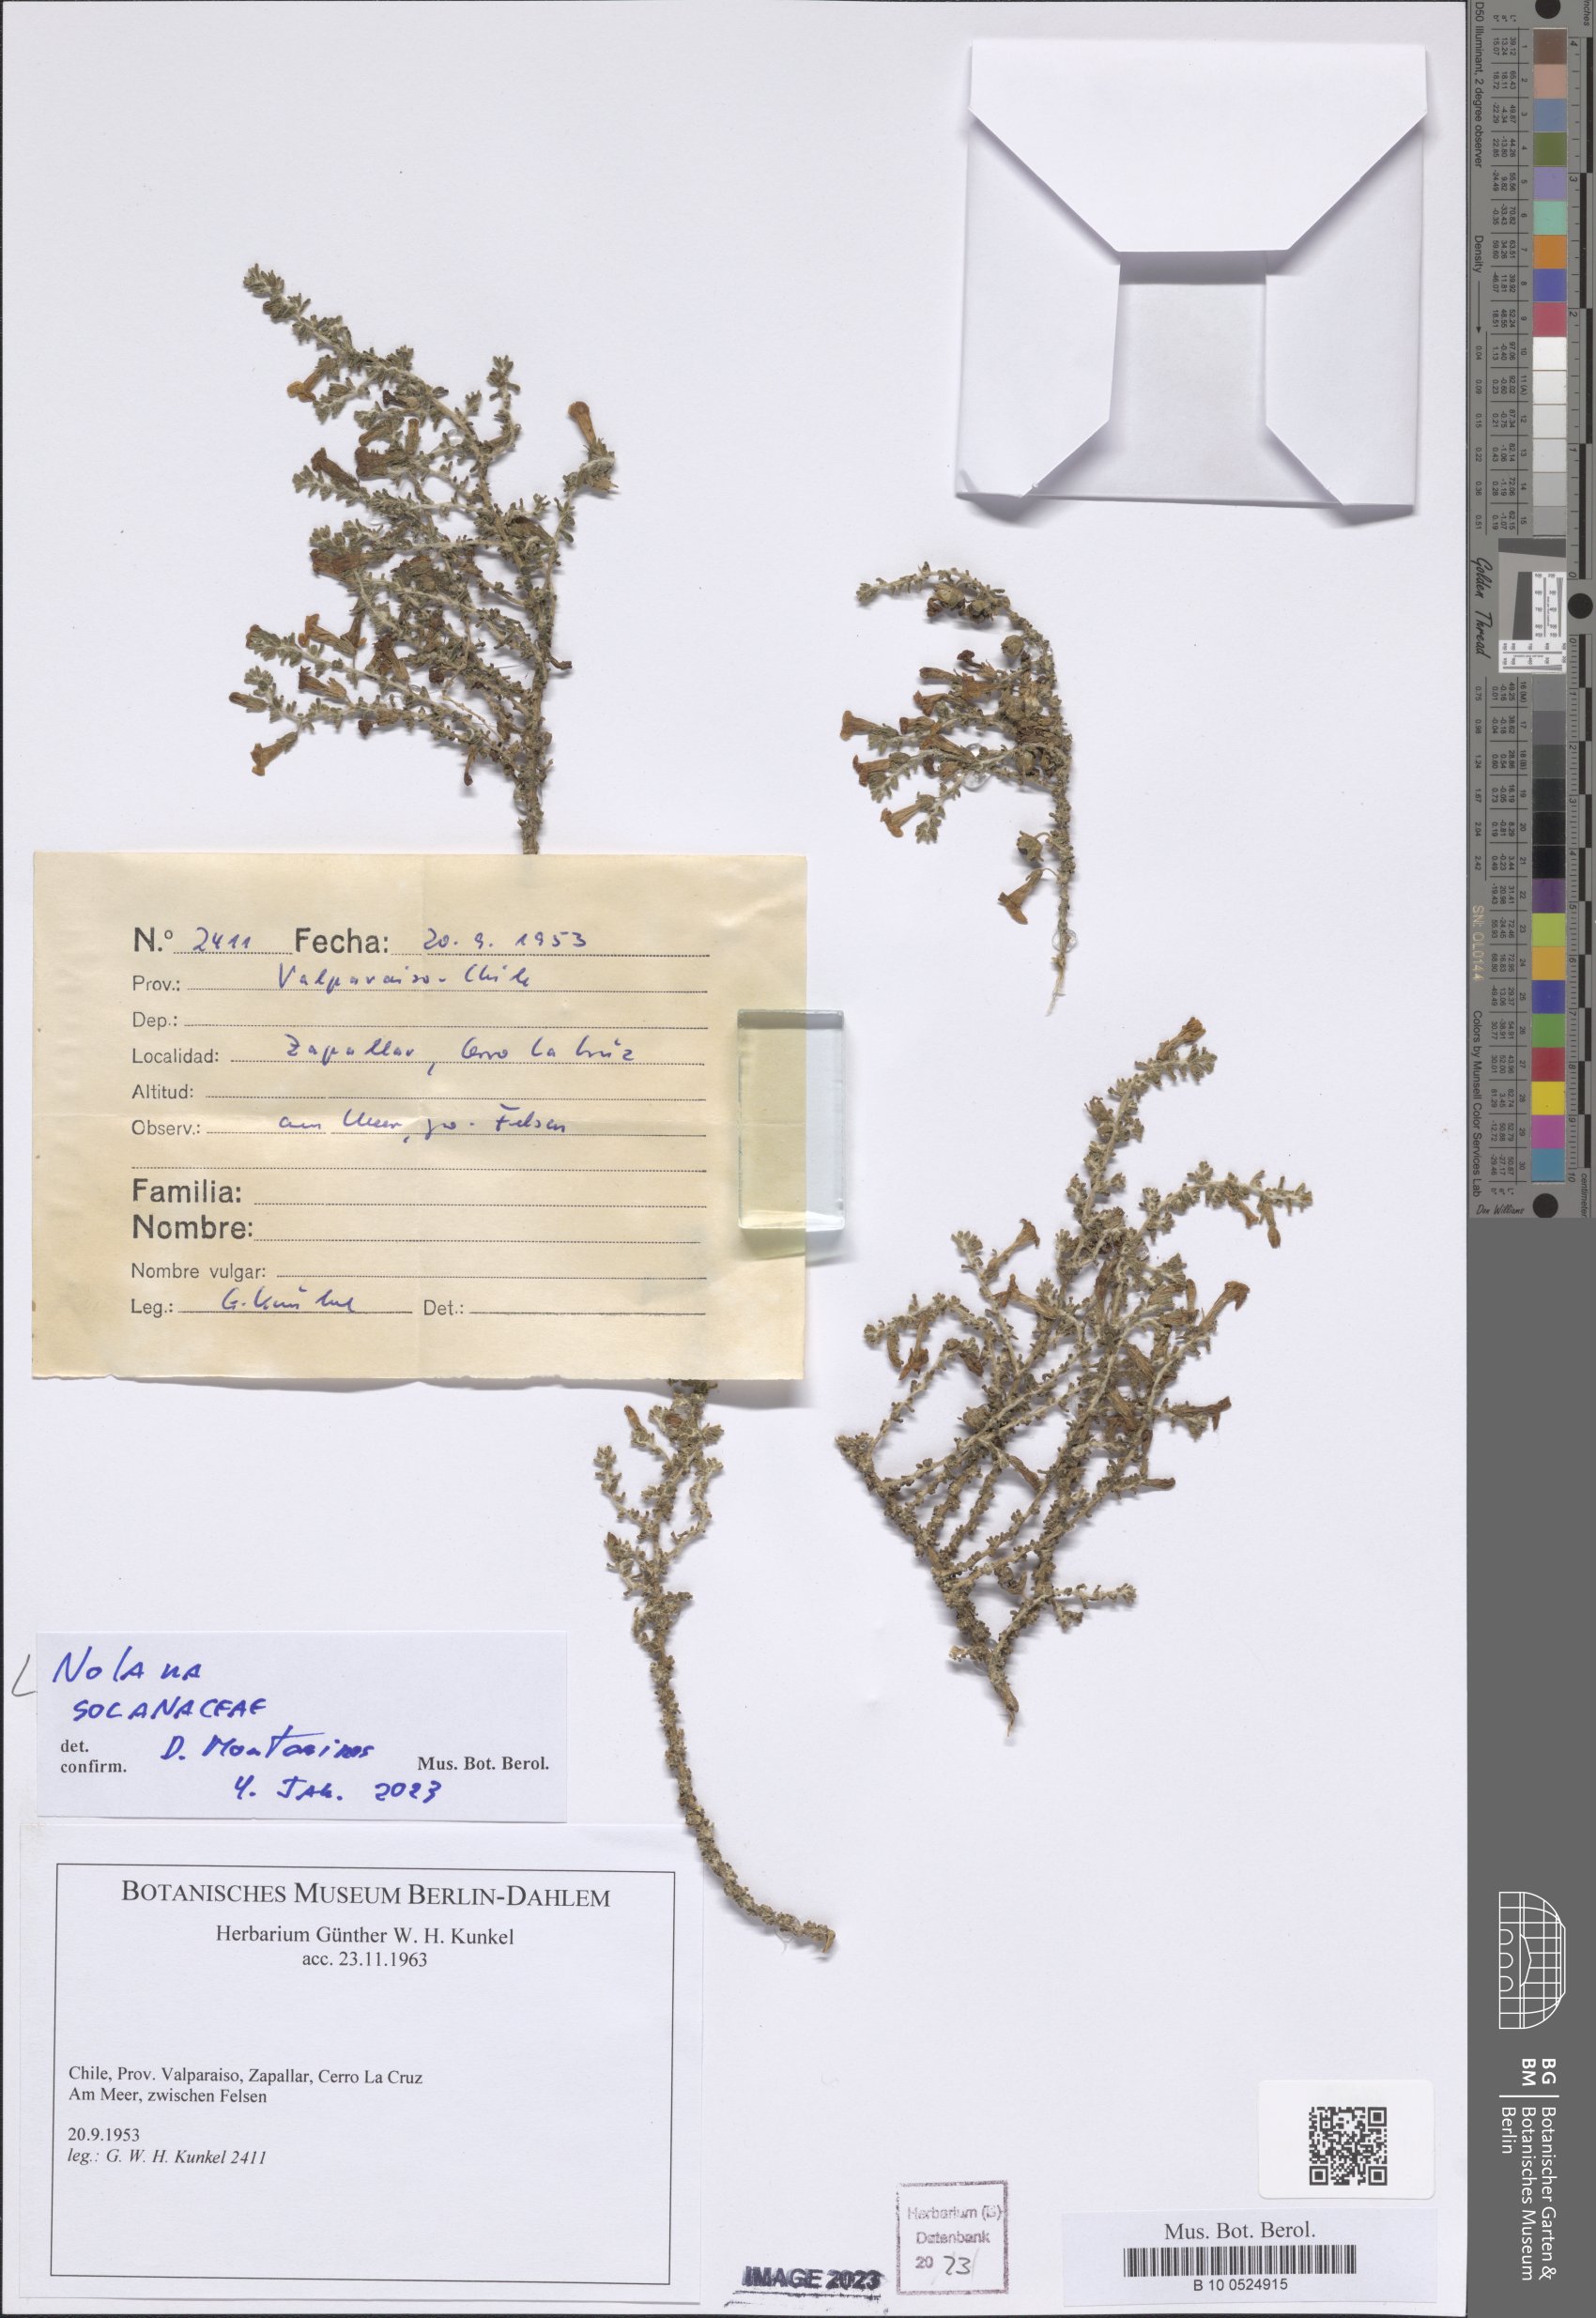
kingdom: Plantae
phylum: Tracheophyta
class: Magnoliopsida
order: Solanales
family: Solanaceae
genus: Nolana
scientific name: Nolana
